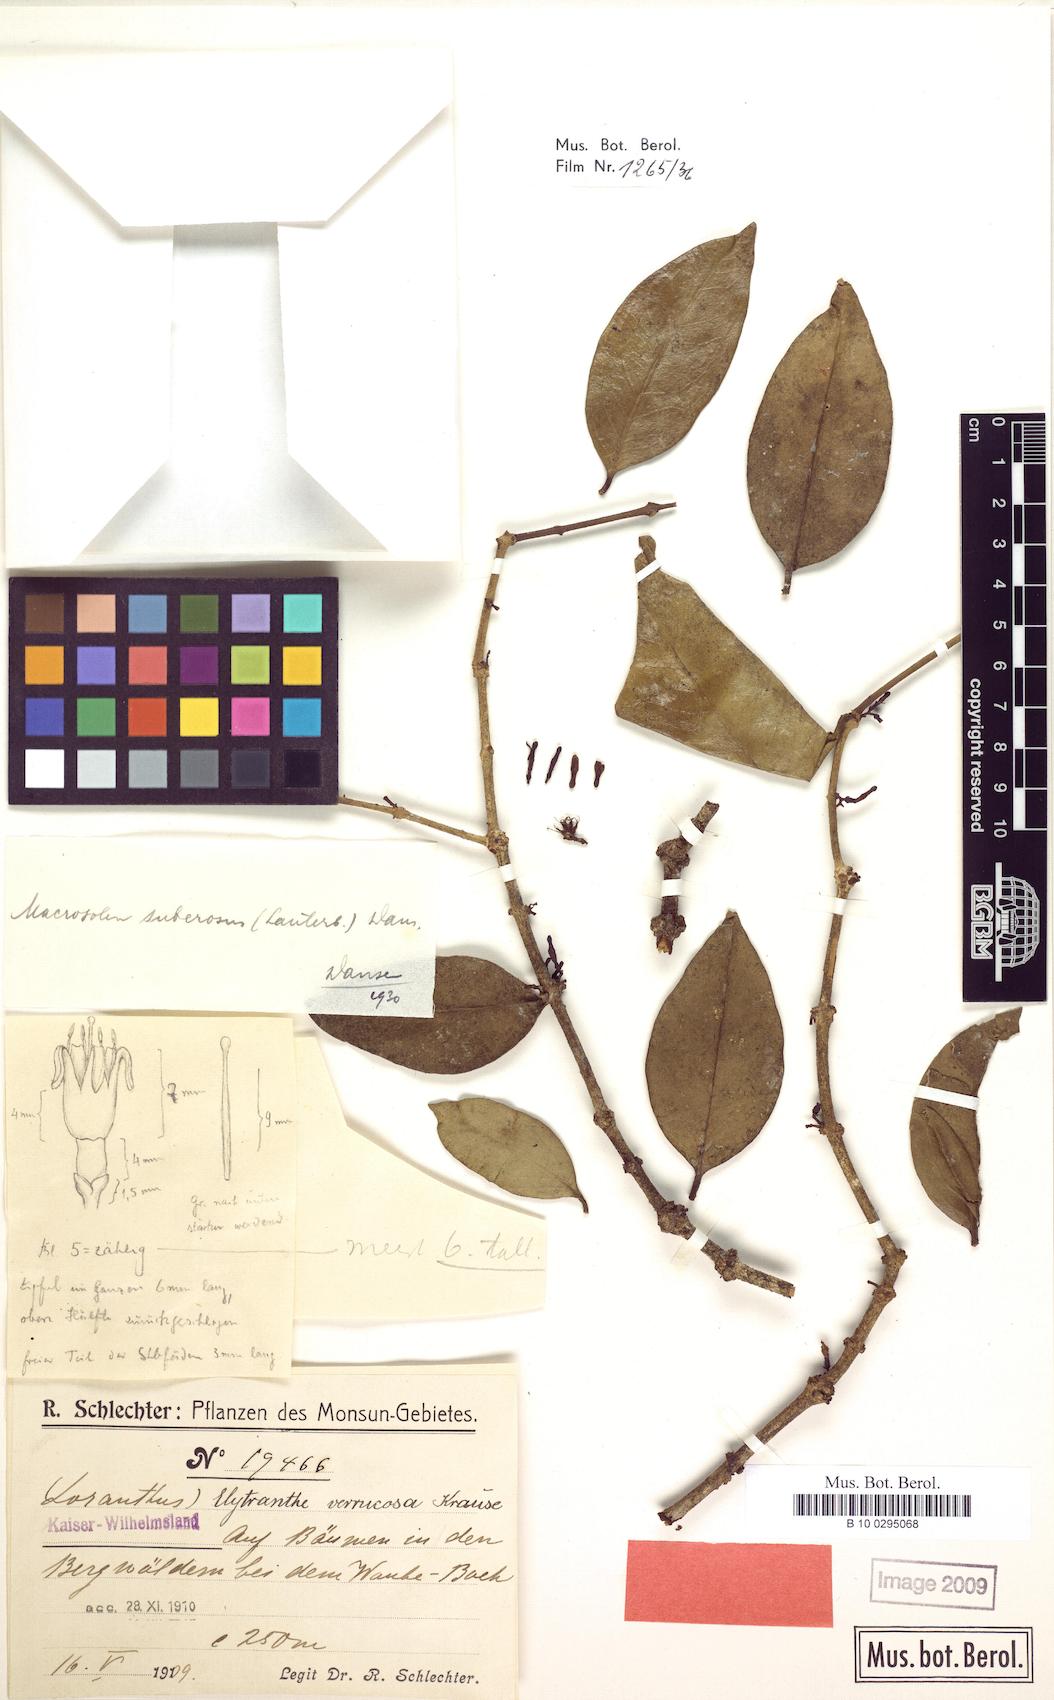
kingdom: Plantae
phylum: Tracheophyta
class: Magnoliopsida
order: Santalales
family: Loranthaceae
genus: Macrosolen
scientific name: Macrosolen cochinchinensis
